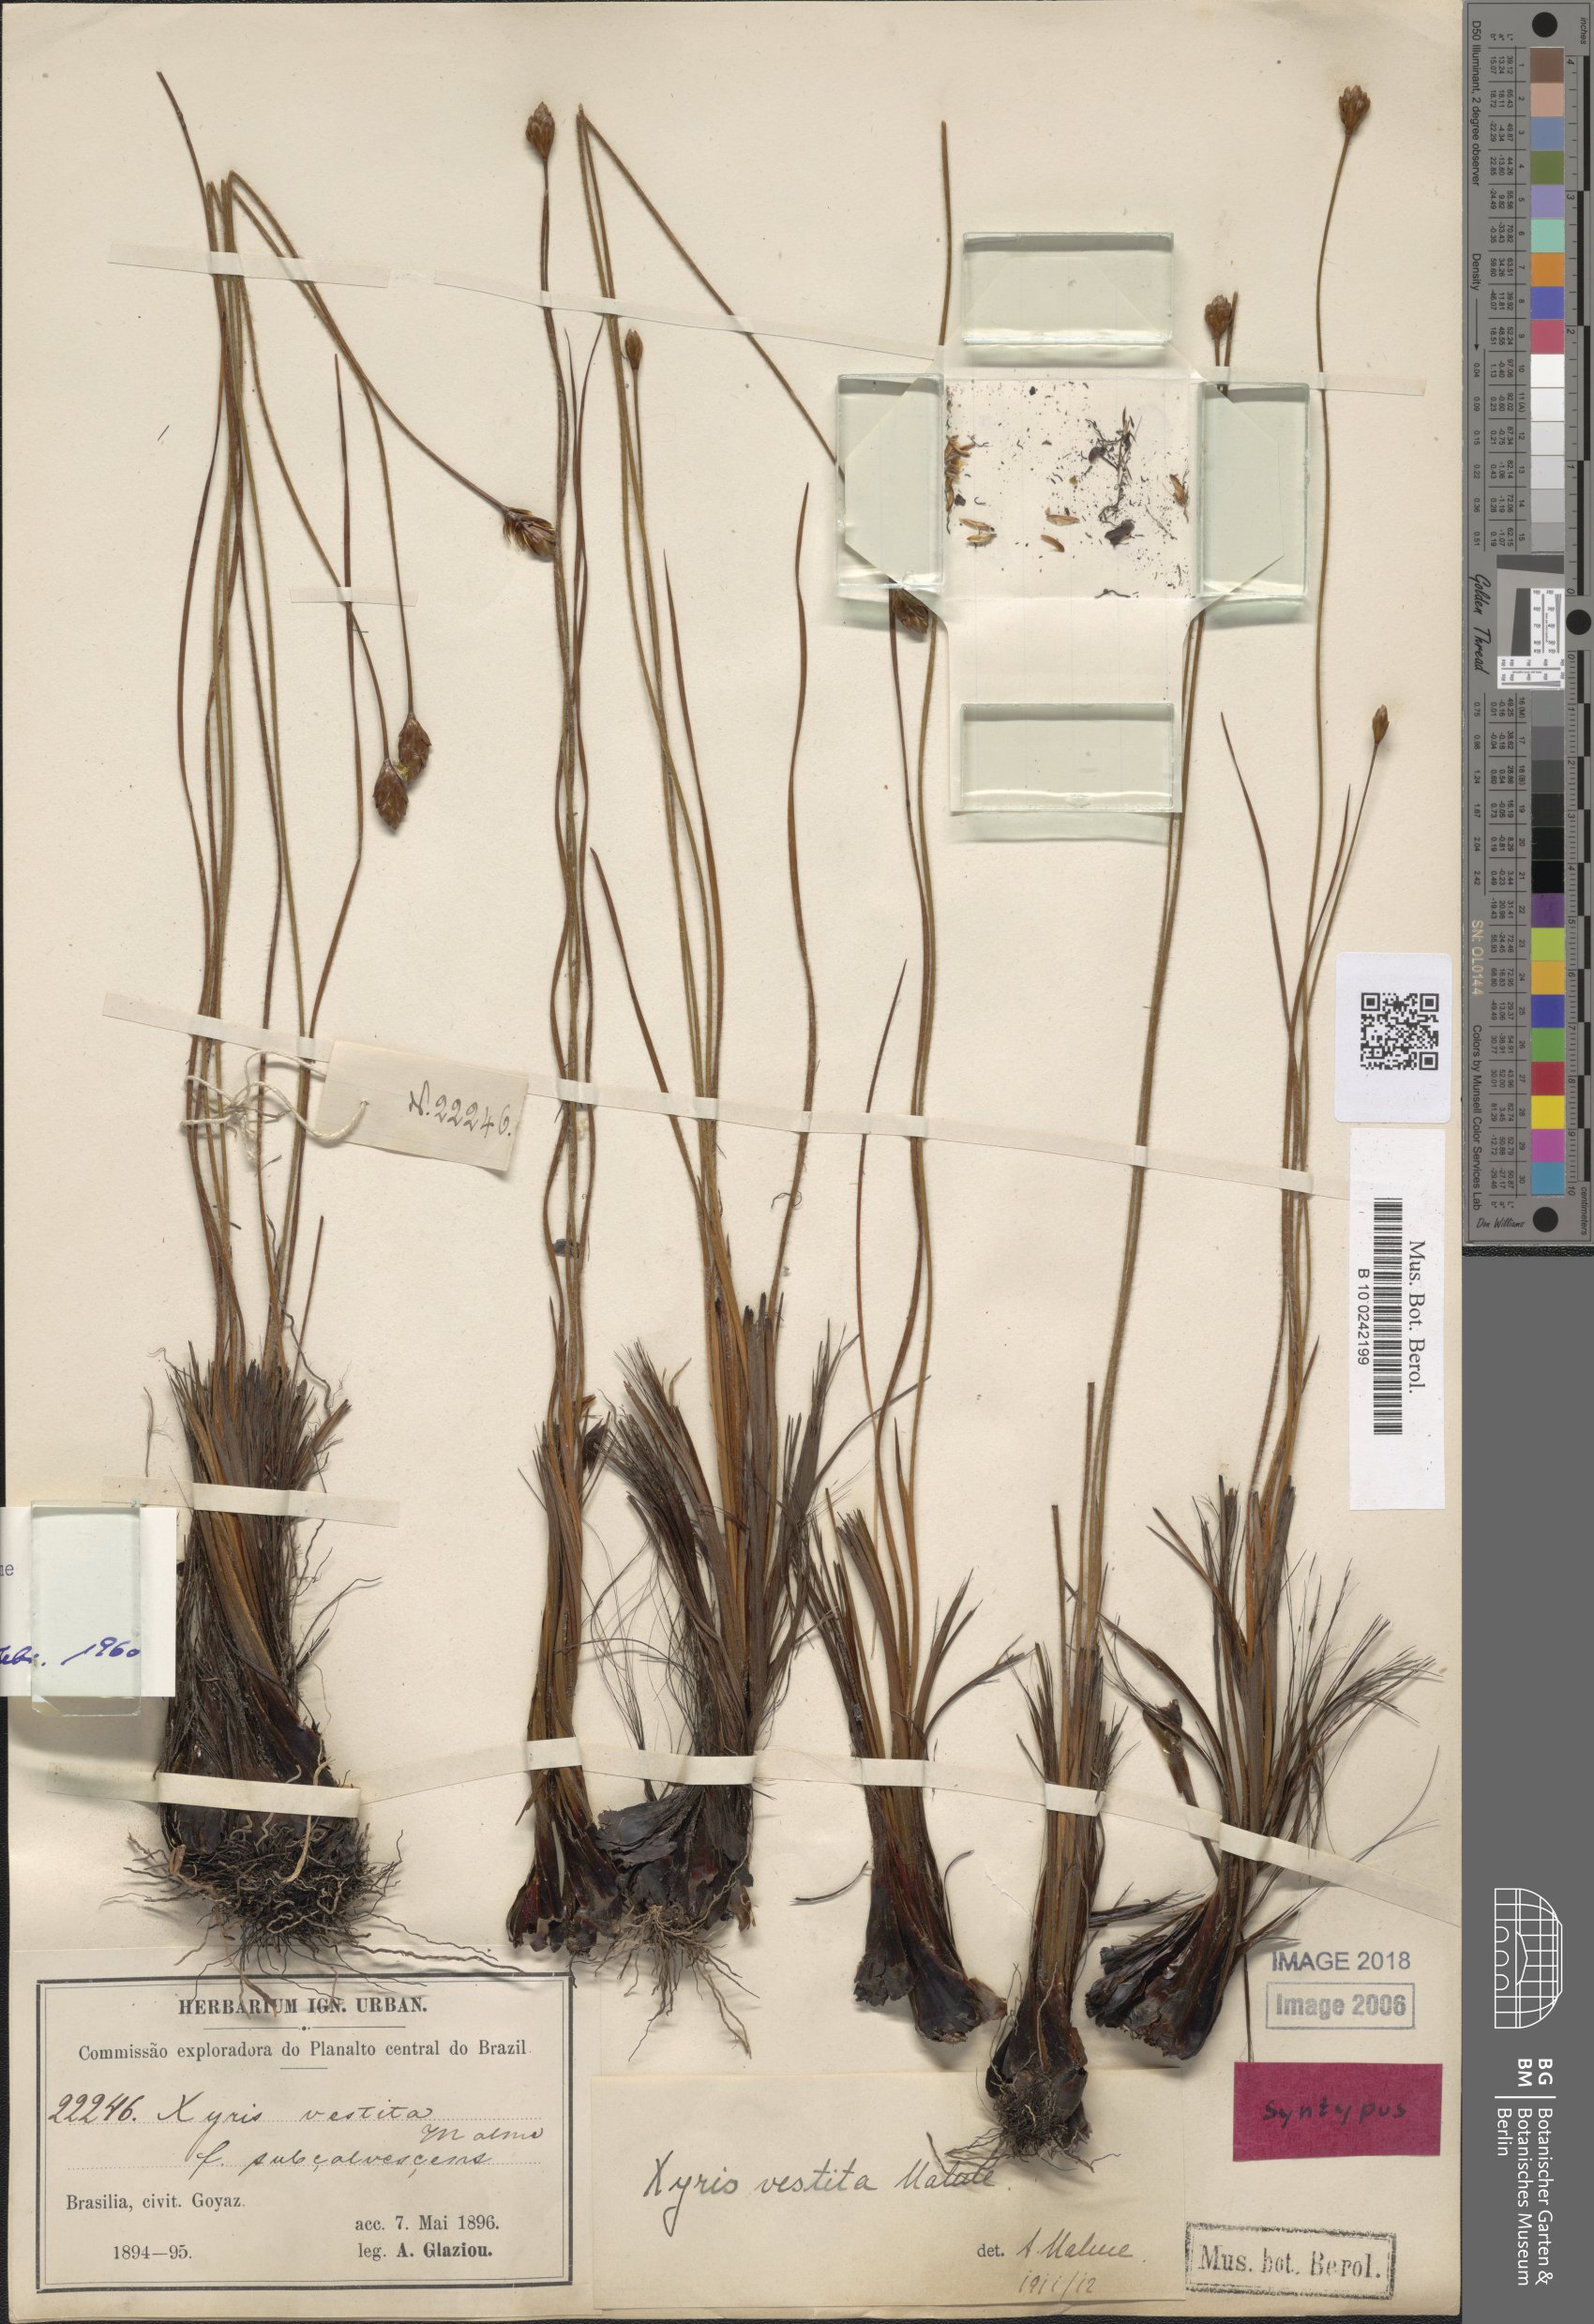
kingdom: Plantae
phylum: Tracheophyta
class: Liliopsida
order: Poales
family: Xyridaceae
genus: Xyris
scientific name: Xyris vestita
